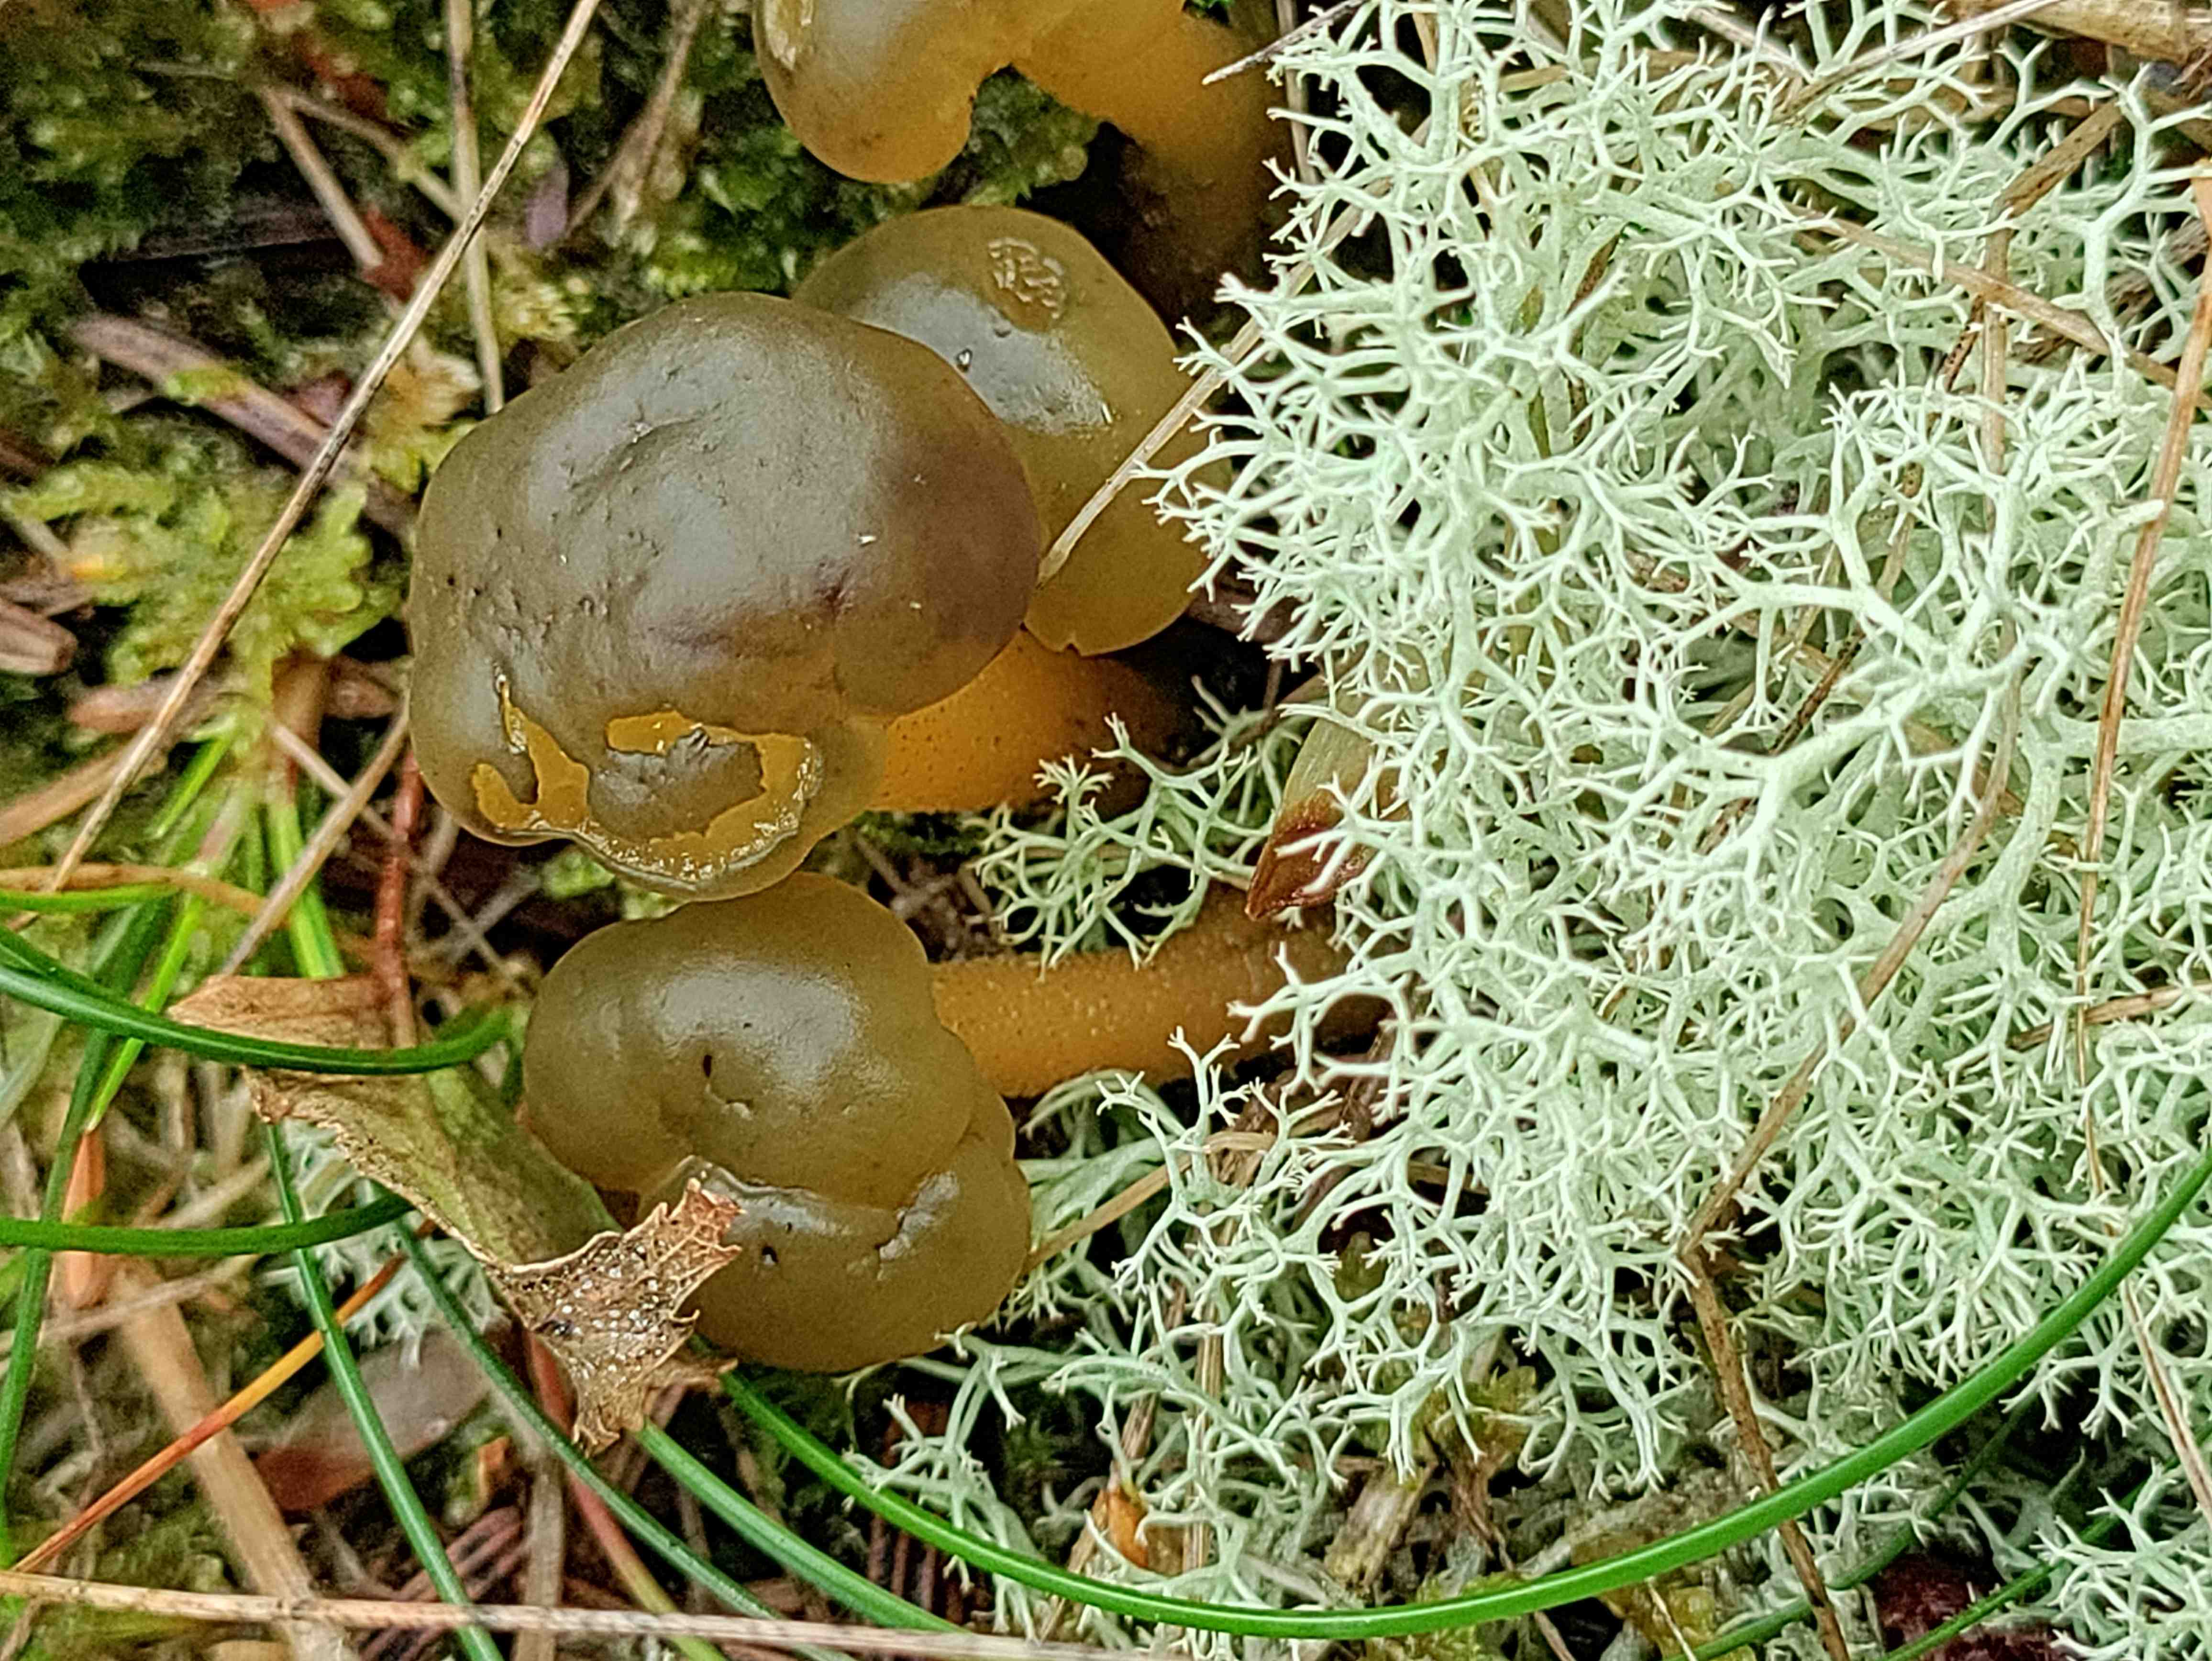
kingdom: Fungi
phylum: Ascomycota
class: Leotiomycetes
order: Leotiales
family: Leotiaceae
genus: Leotia
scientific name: Leotia lubrica
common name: ravsvamp
